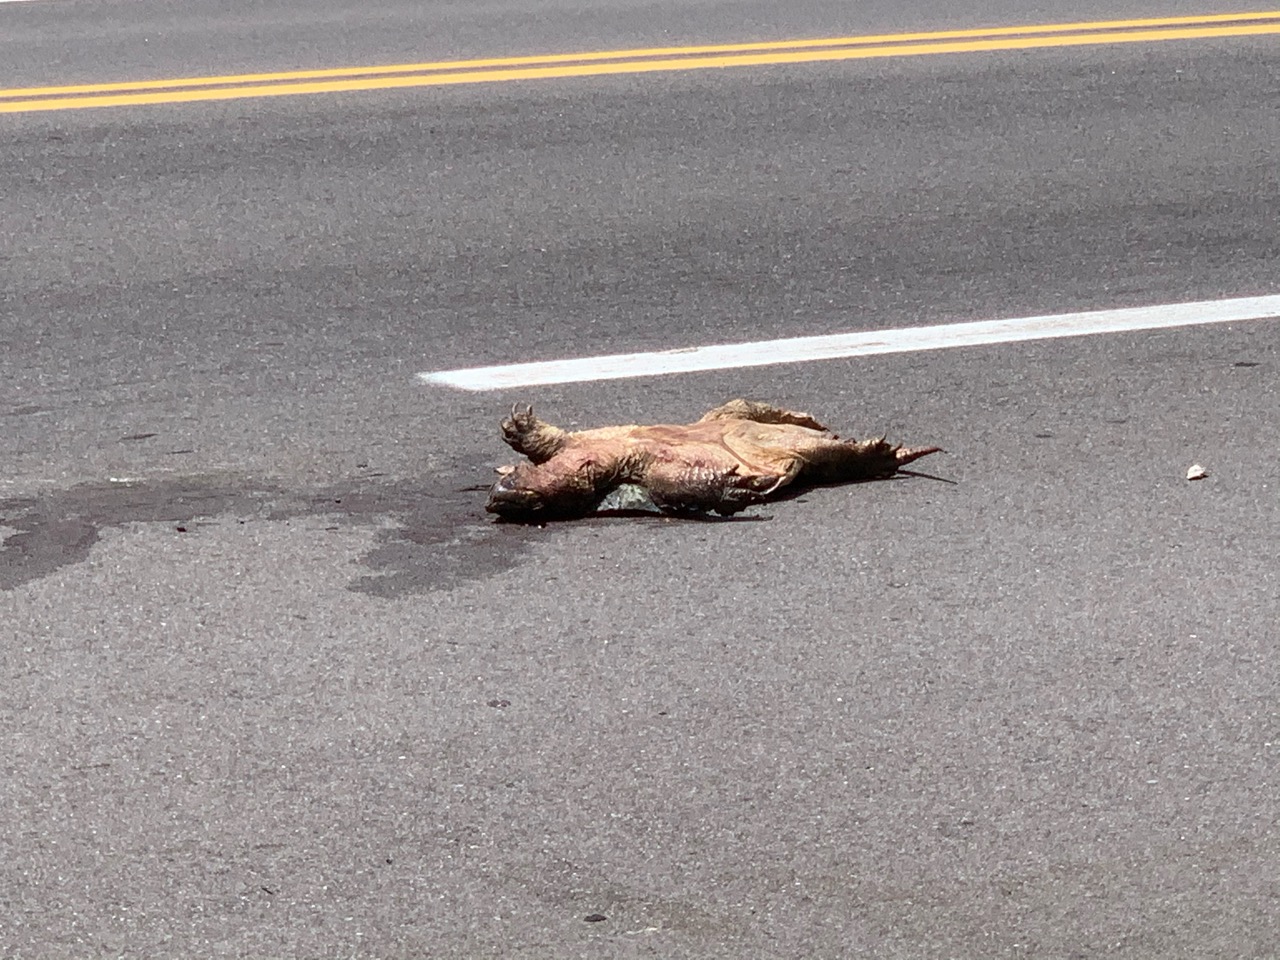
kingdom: Animalia
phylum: Chordata
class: Testudines
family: Chelydridae
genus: Chelydra
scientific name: Chelydra serpentina
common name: Common snapping turtle
